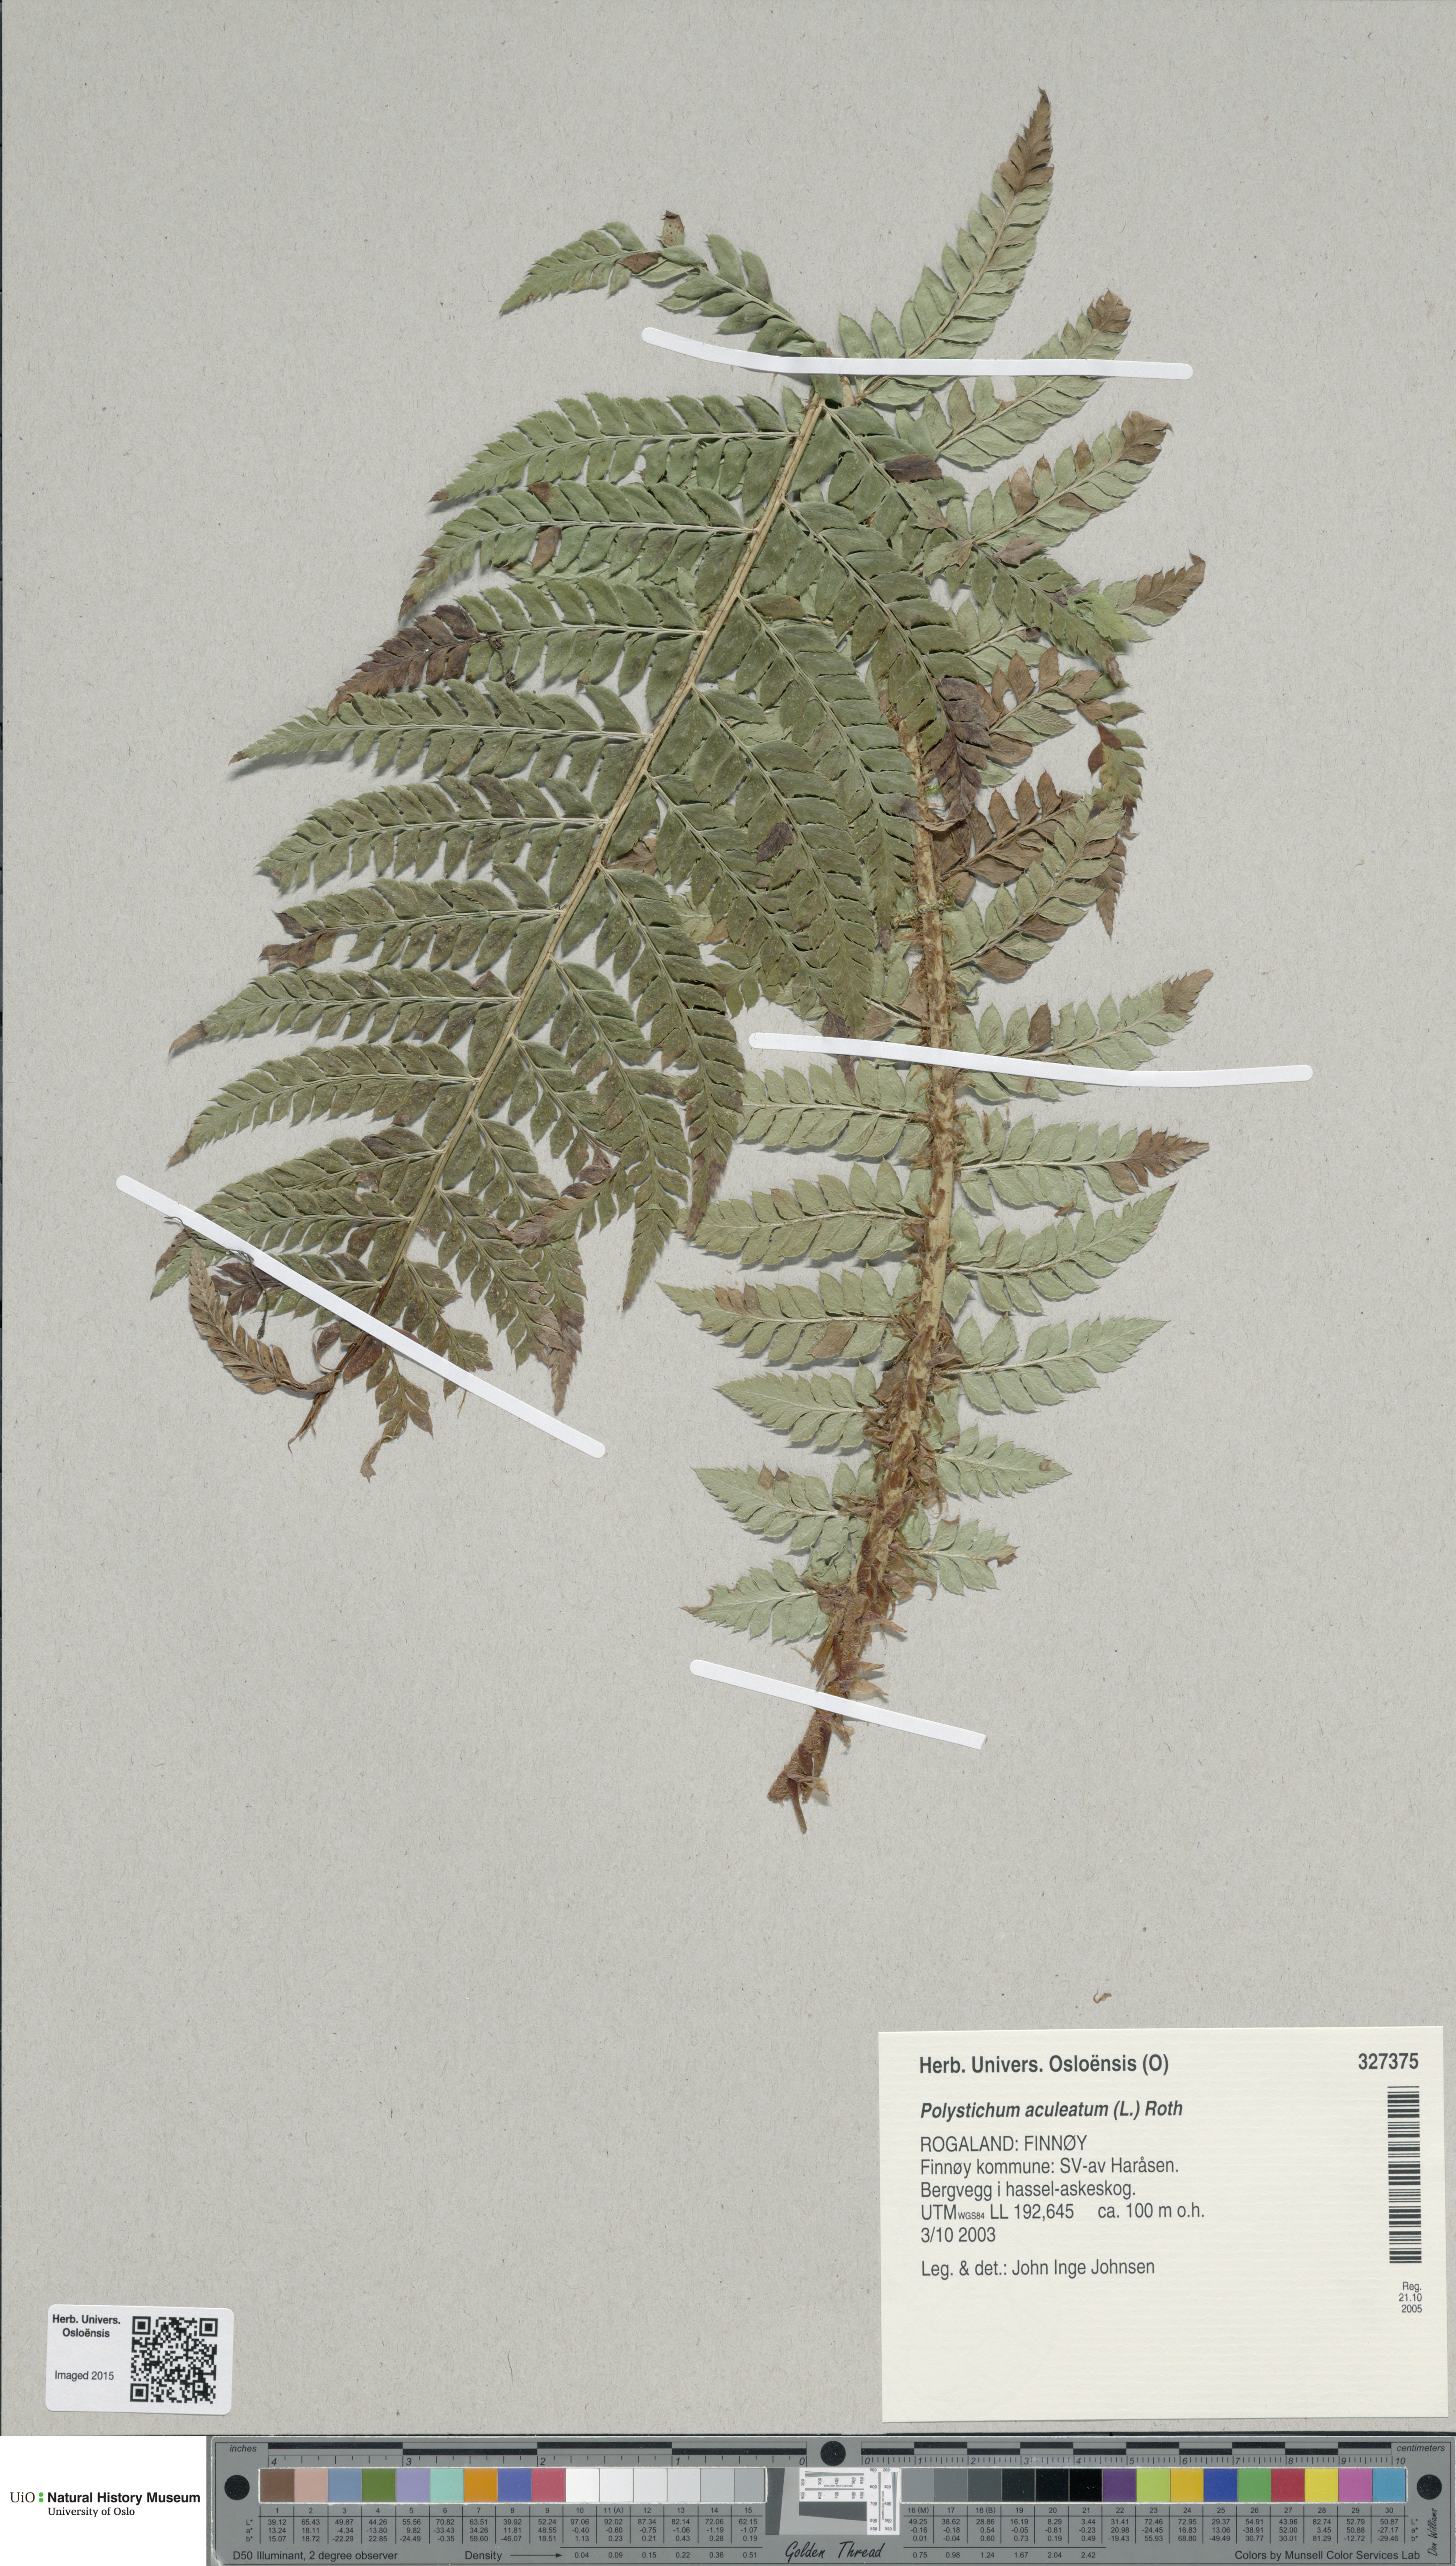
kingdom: Plantae
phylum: Tracheophyta
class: Polypodiopsida
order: Polypodiales
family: Dryopteridaceae
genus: Polystichum
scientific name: Polystichum aculeatum
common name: Hard shield-fern
